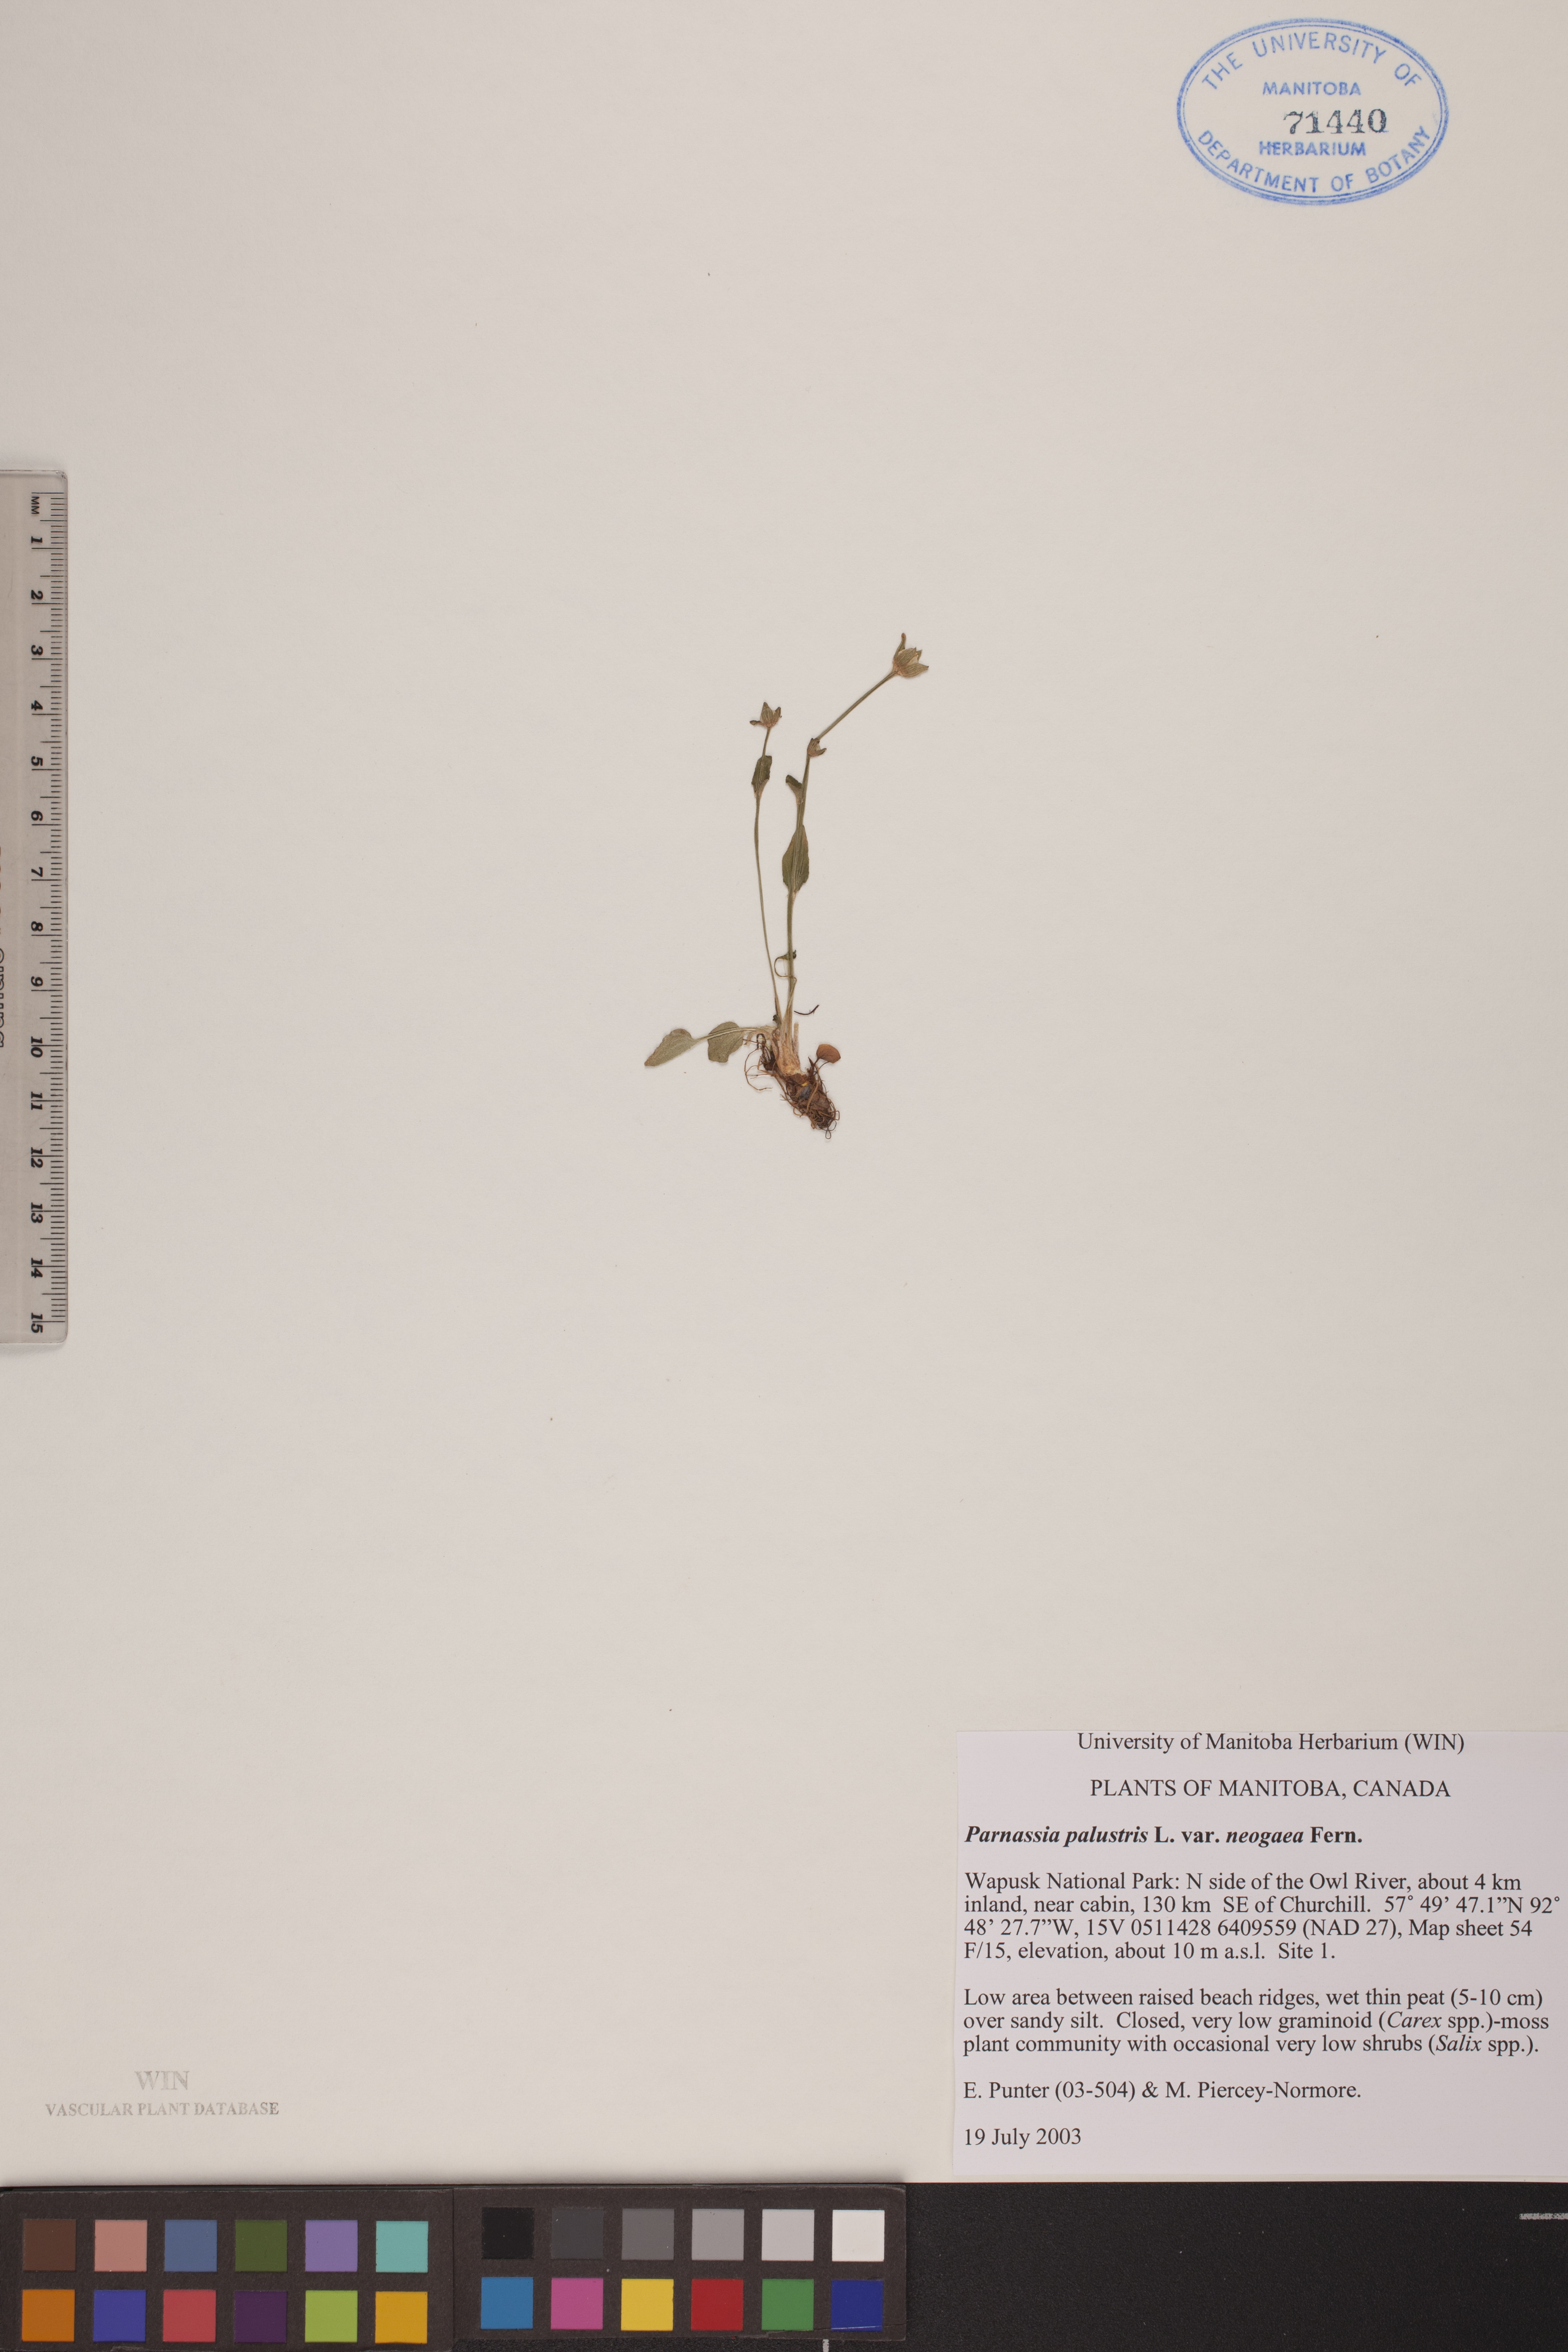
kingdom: Plantae
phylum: Tracheophyta
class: Magnoliopsida
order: Celastrales
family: Parnassiaceae
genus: Parnassia
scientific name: Parnassia palustris
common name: Grass-of-parnassus
